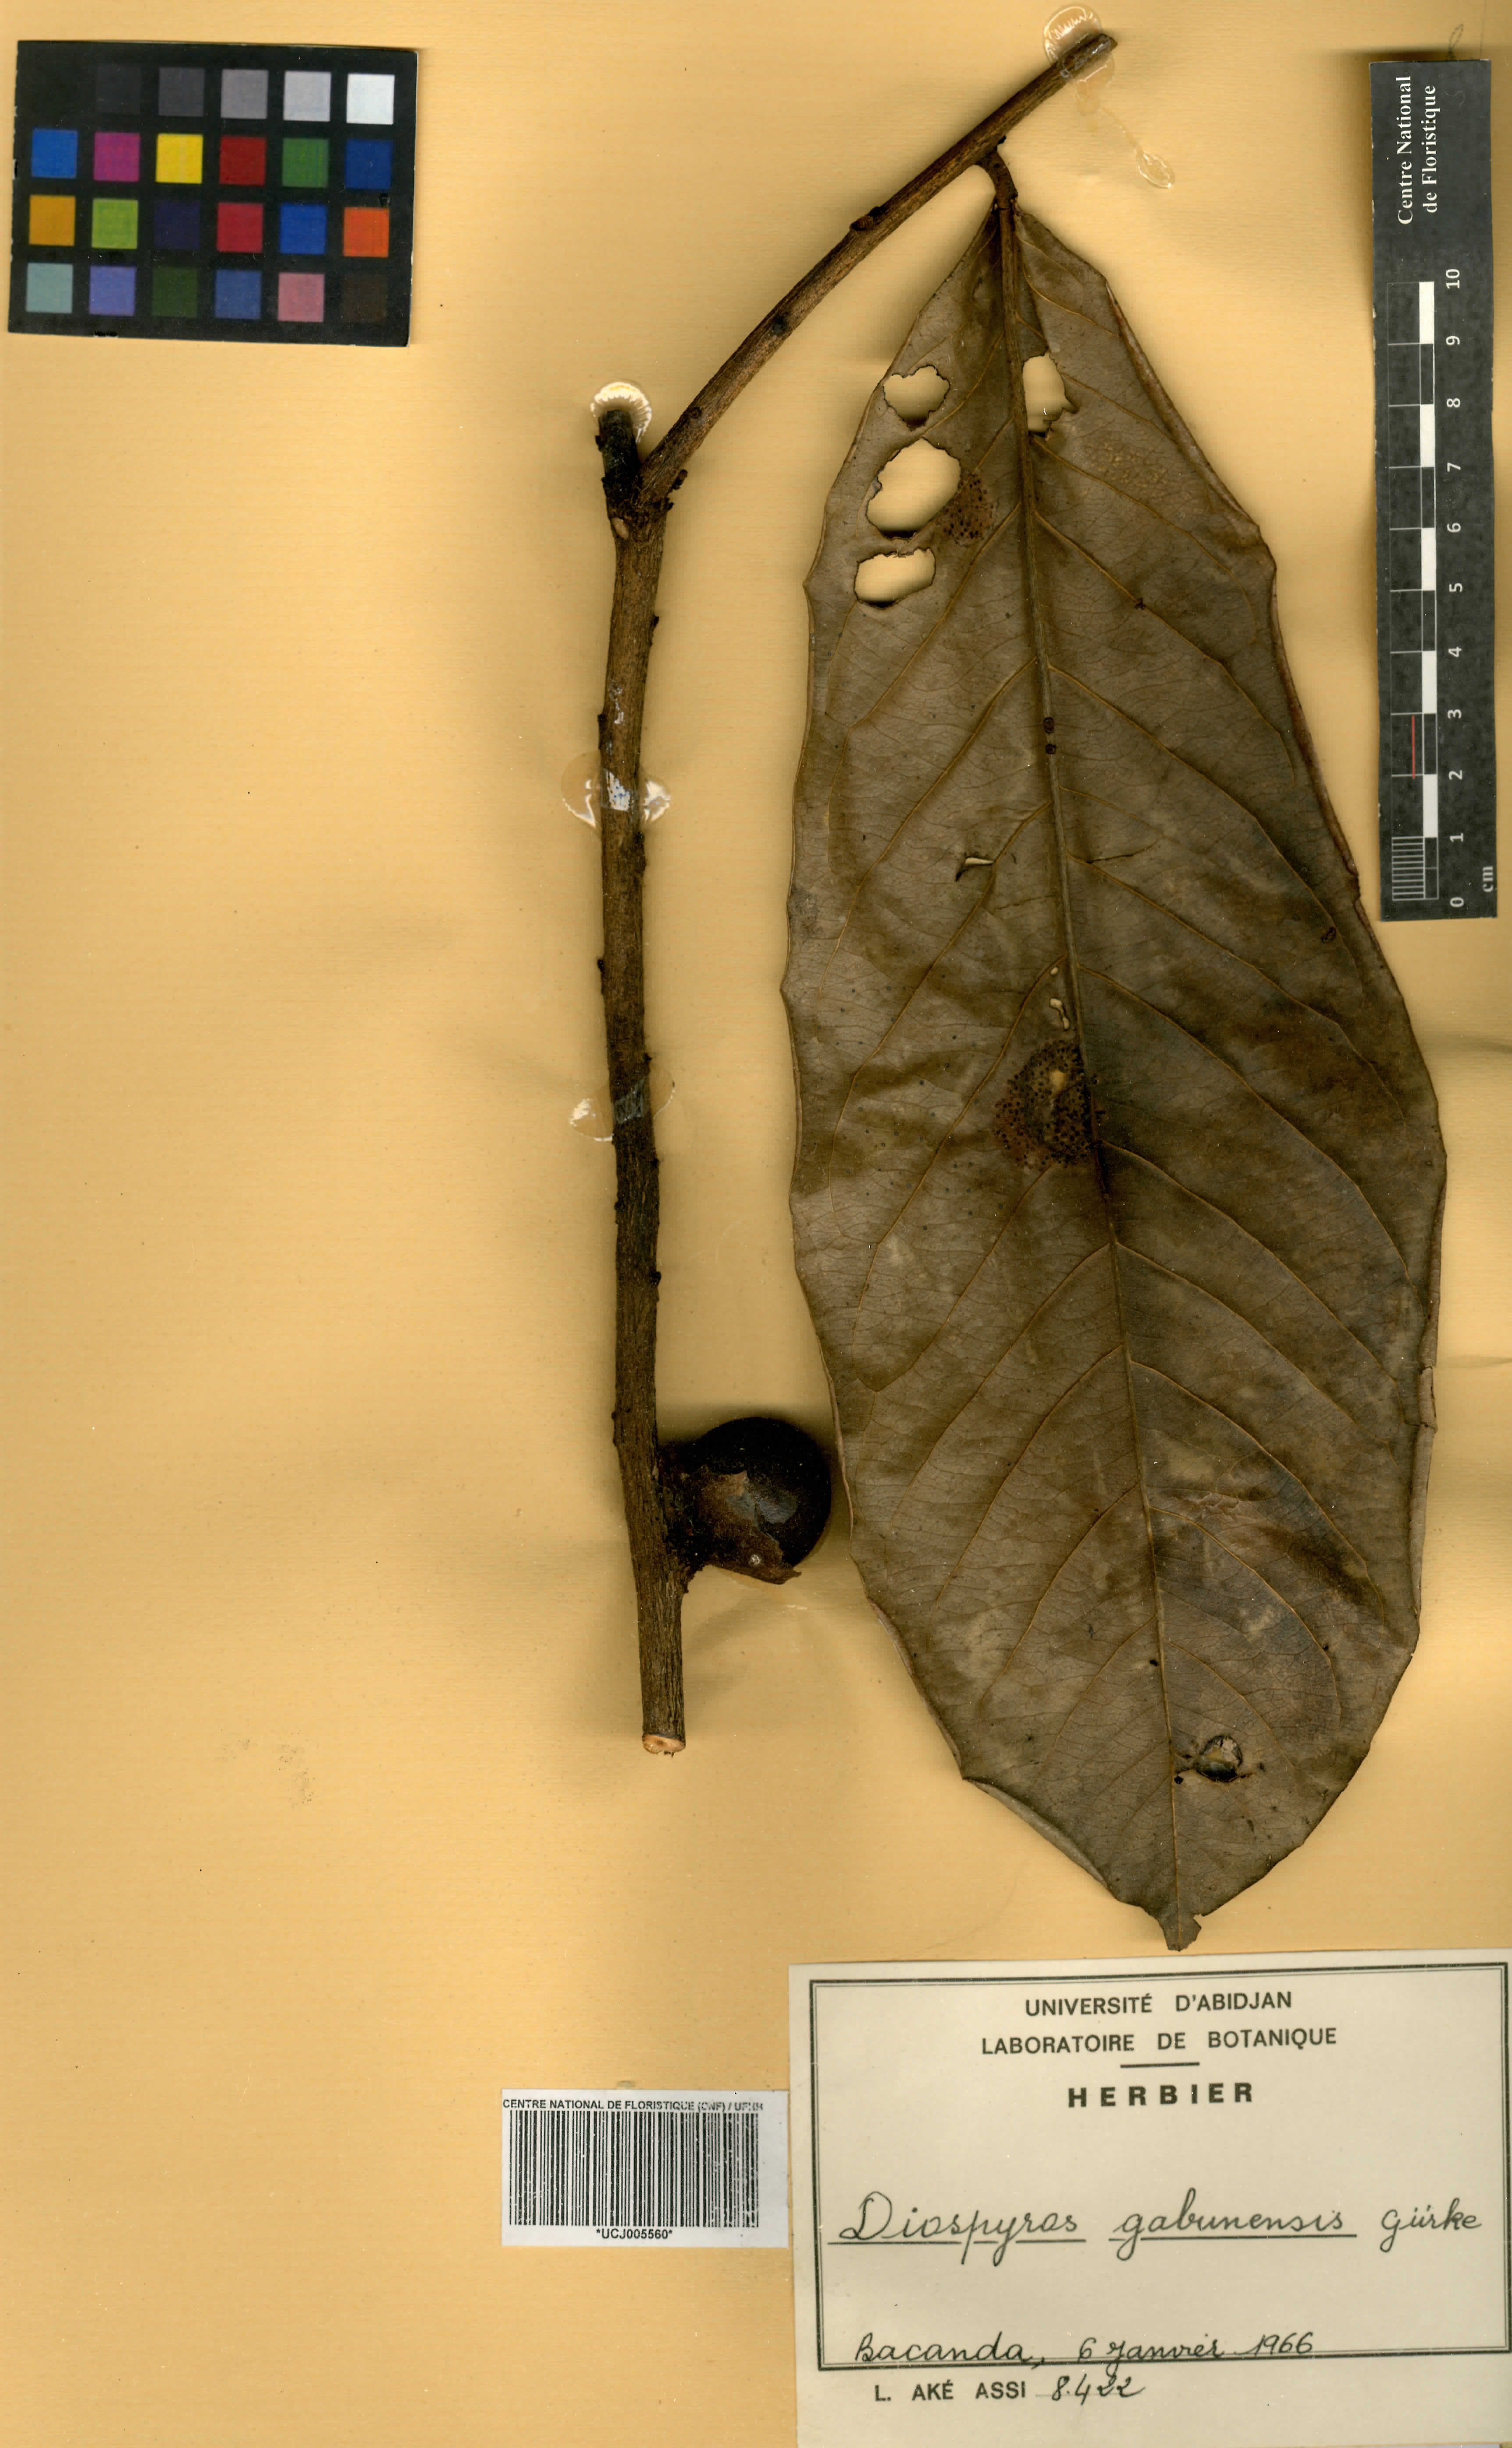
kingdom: Plantae
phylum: Tracheophyta
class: Magnoliopsida
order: Ericales
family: Ebenaceae
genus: Diospyros
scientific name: Diospyros gabunensis
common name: Flint bark tree
